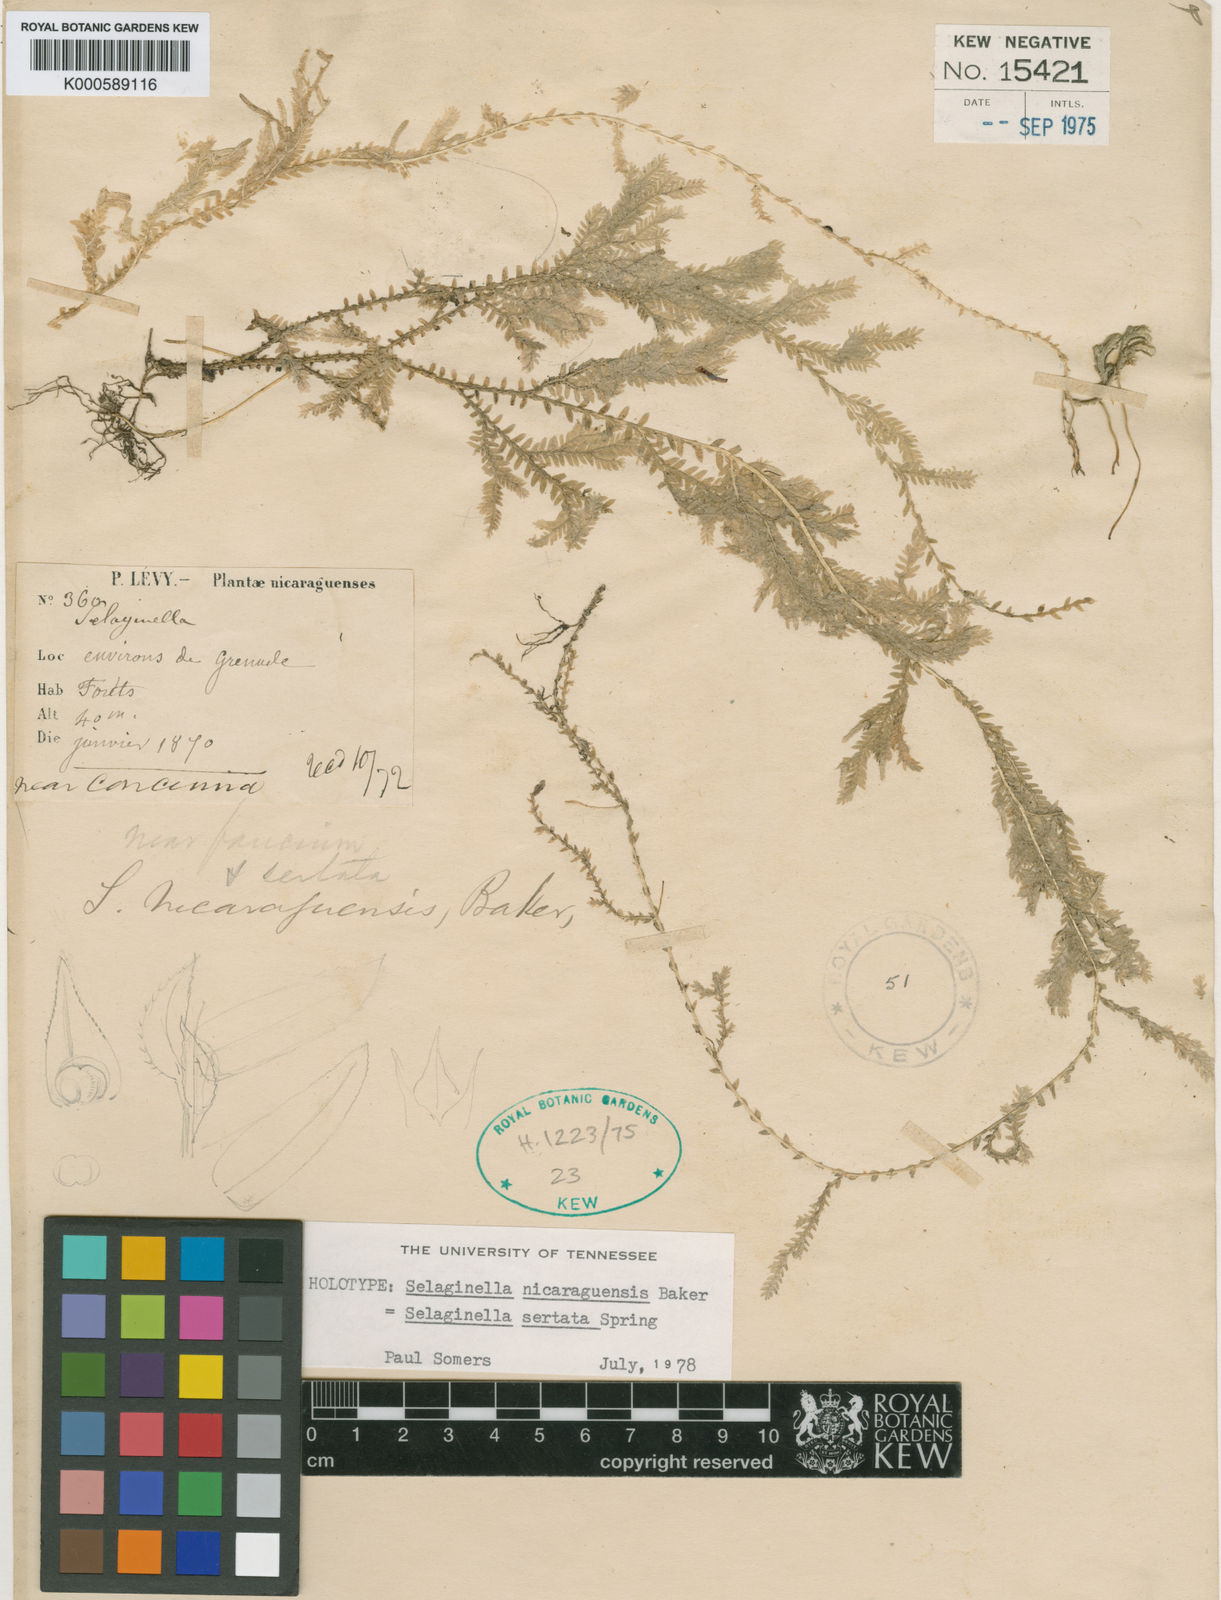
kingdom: Plantae
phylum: Tracheophyta
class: Lycopodiopsida
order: Selaginellales
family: Selaginellaceae
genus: Selaginella
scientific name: Selaginella sertata
